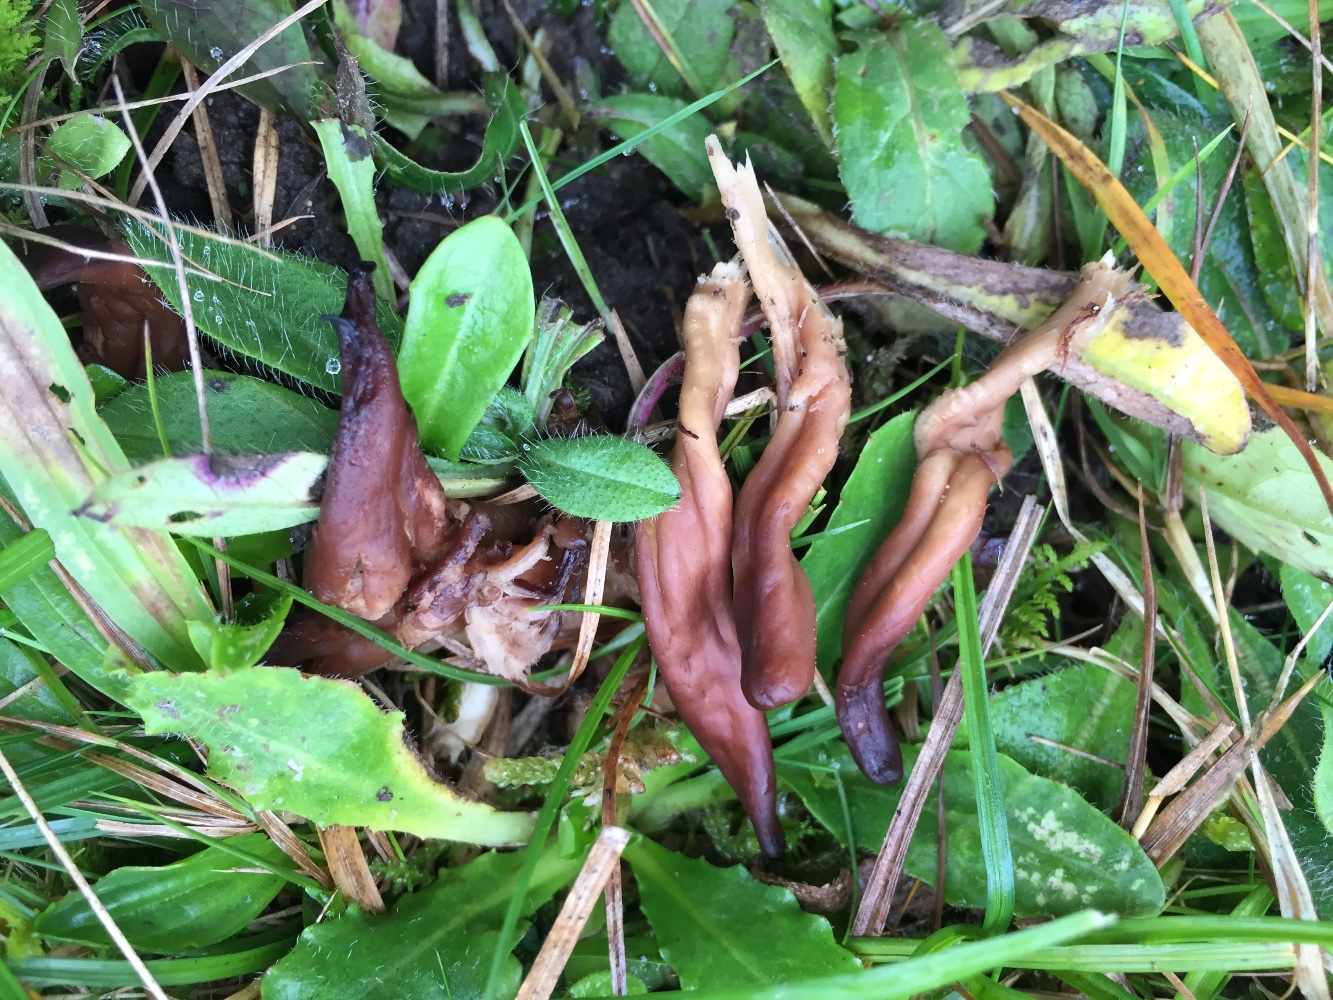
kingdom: Fungi
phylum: Ascomycota
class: Leotiomycetes
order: Leotiales
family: Leotiaceae
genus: Microglossum
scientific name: Microglossum olivaceum
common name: olivenbrun farvetunge
